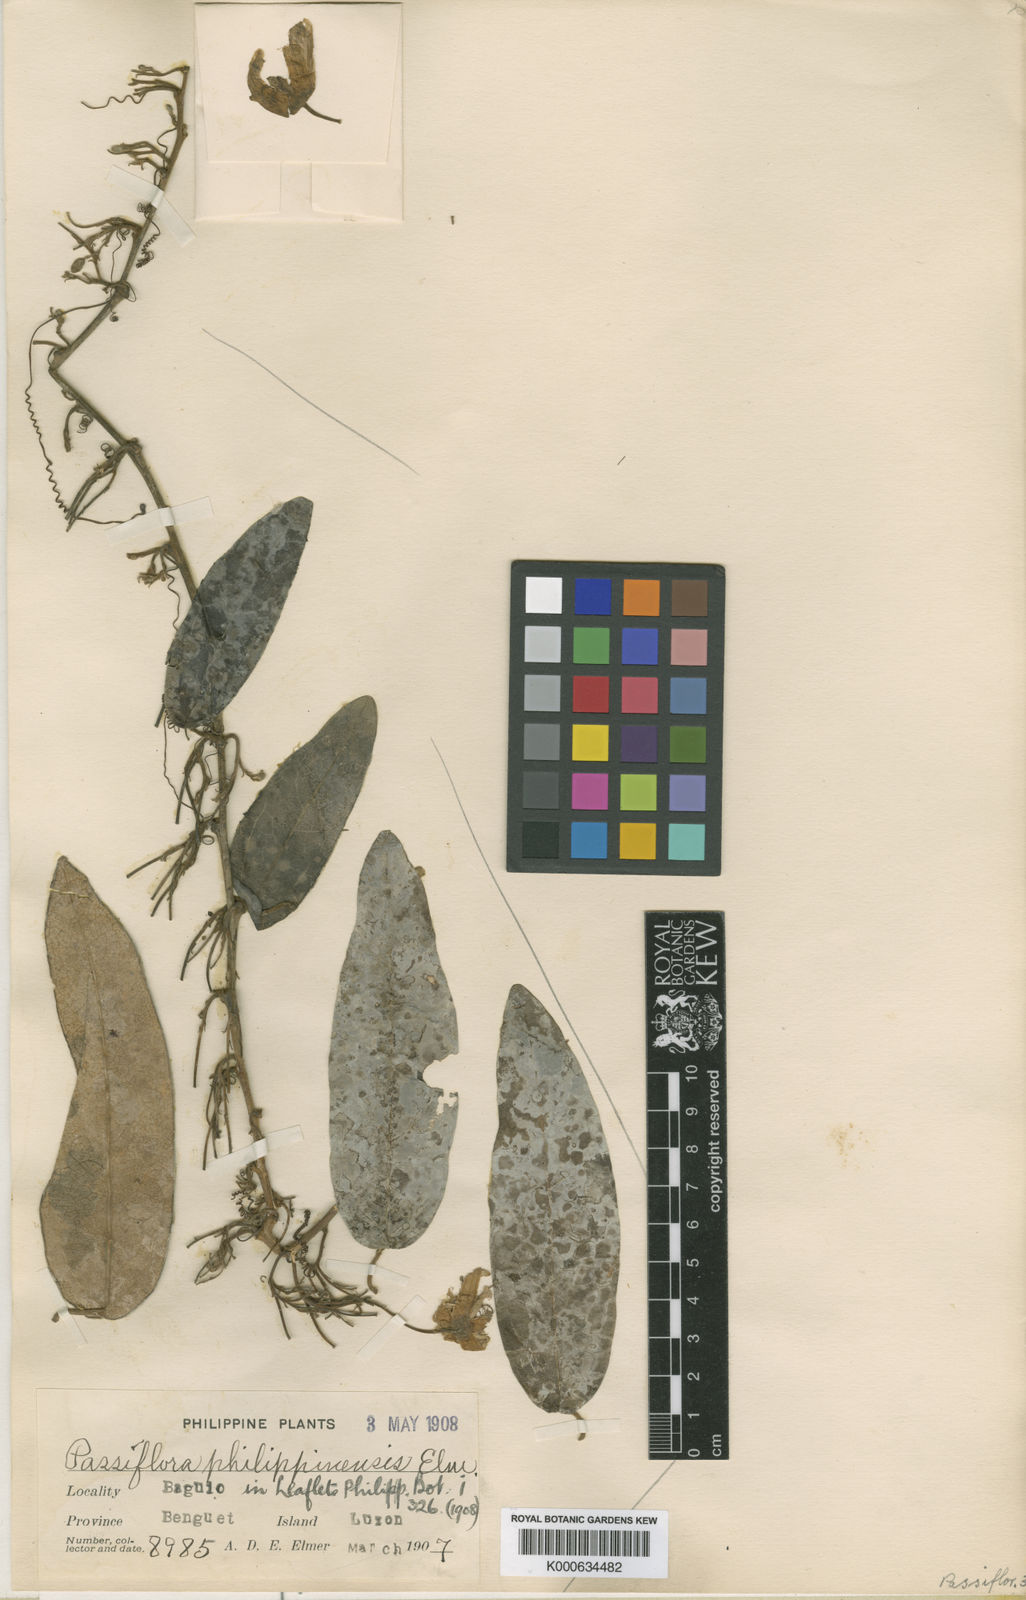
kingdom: Plantae
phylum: Tracheophyta
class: Magnoliopsida
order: Malpighiales
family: Passifloraceae
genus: Passiflora
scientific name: Passiflora moluccana
